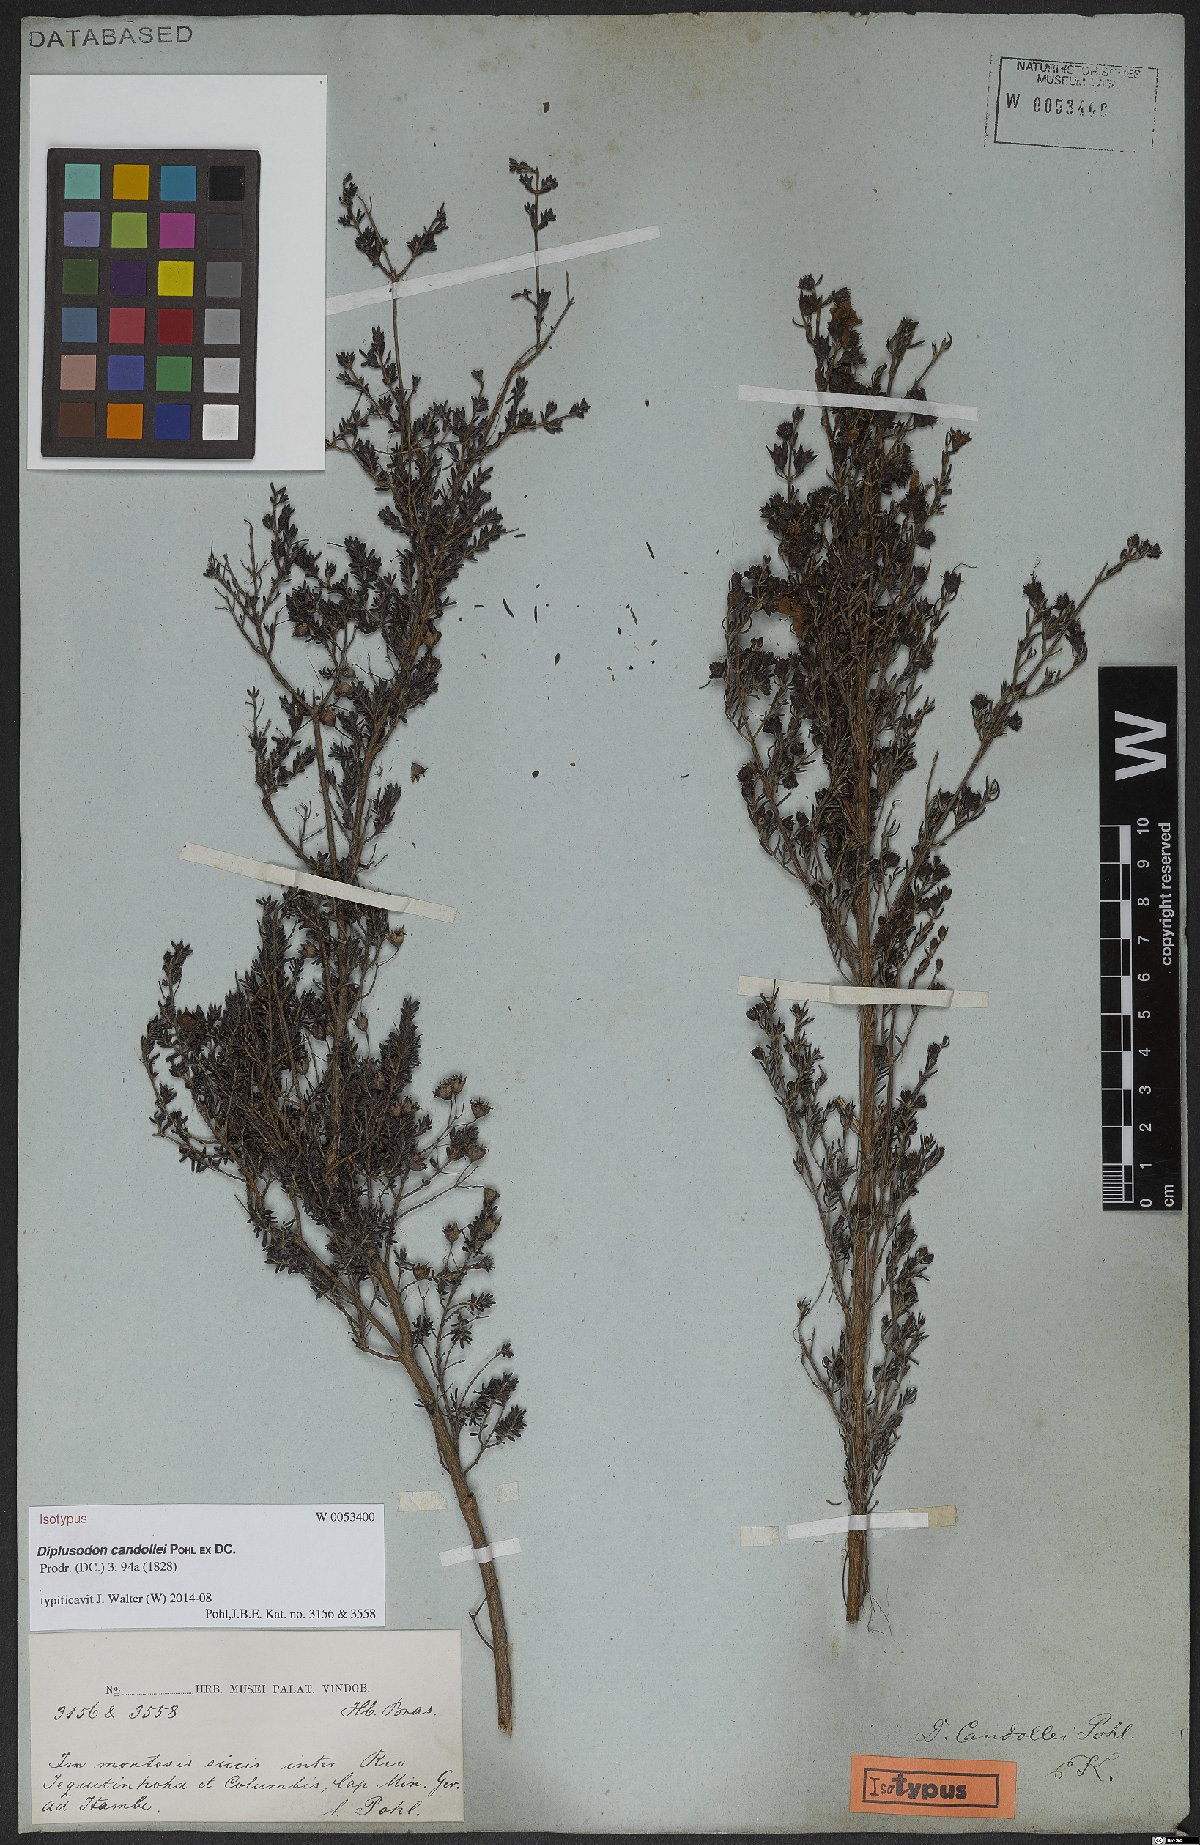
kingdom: Plantae
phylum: Tracheophyta
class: Magnoliopsida
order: Myrtales
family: Lythraceae
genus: Diplusodon
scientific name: Diplusodon candollei
